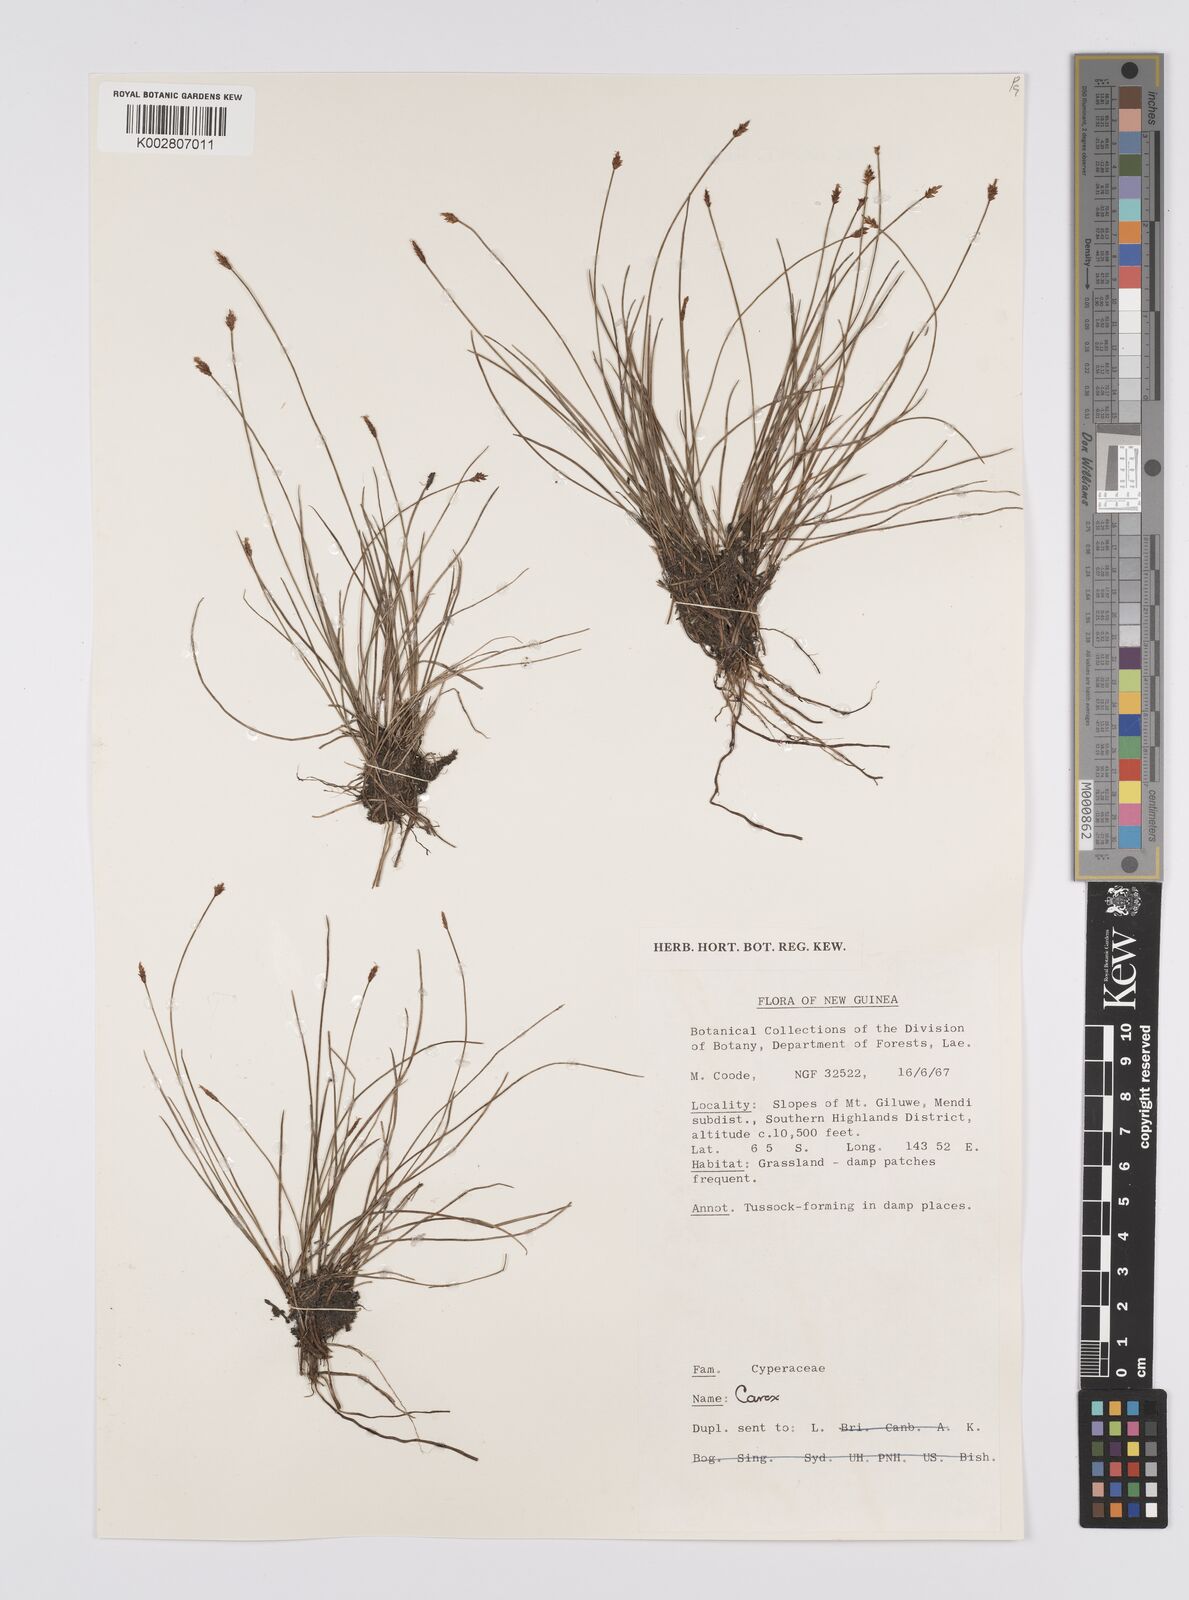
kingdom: Plantae
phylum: Tracheophyta
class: Liliopsida
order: Poales
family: Cyperaceae
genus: Carex
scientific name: Carex capillacea
